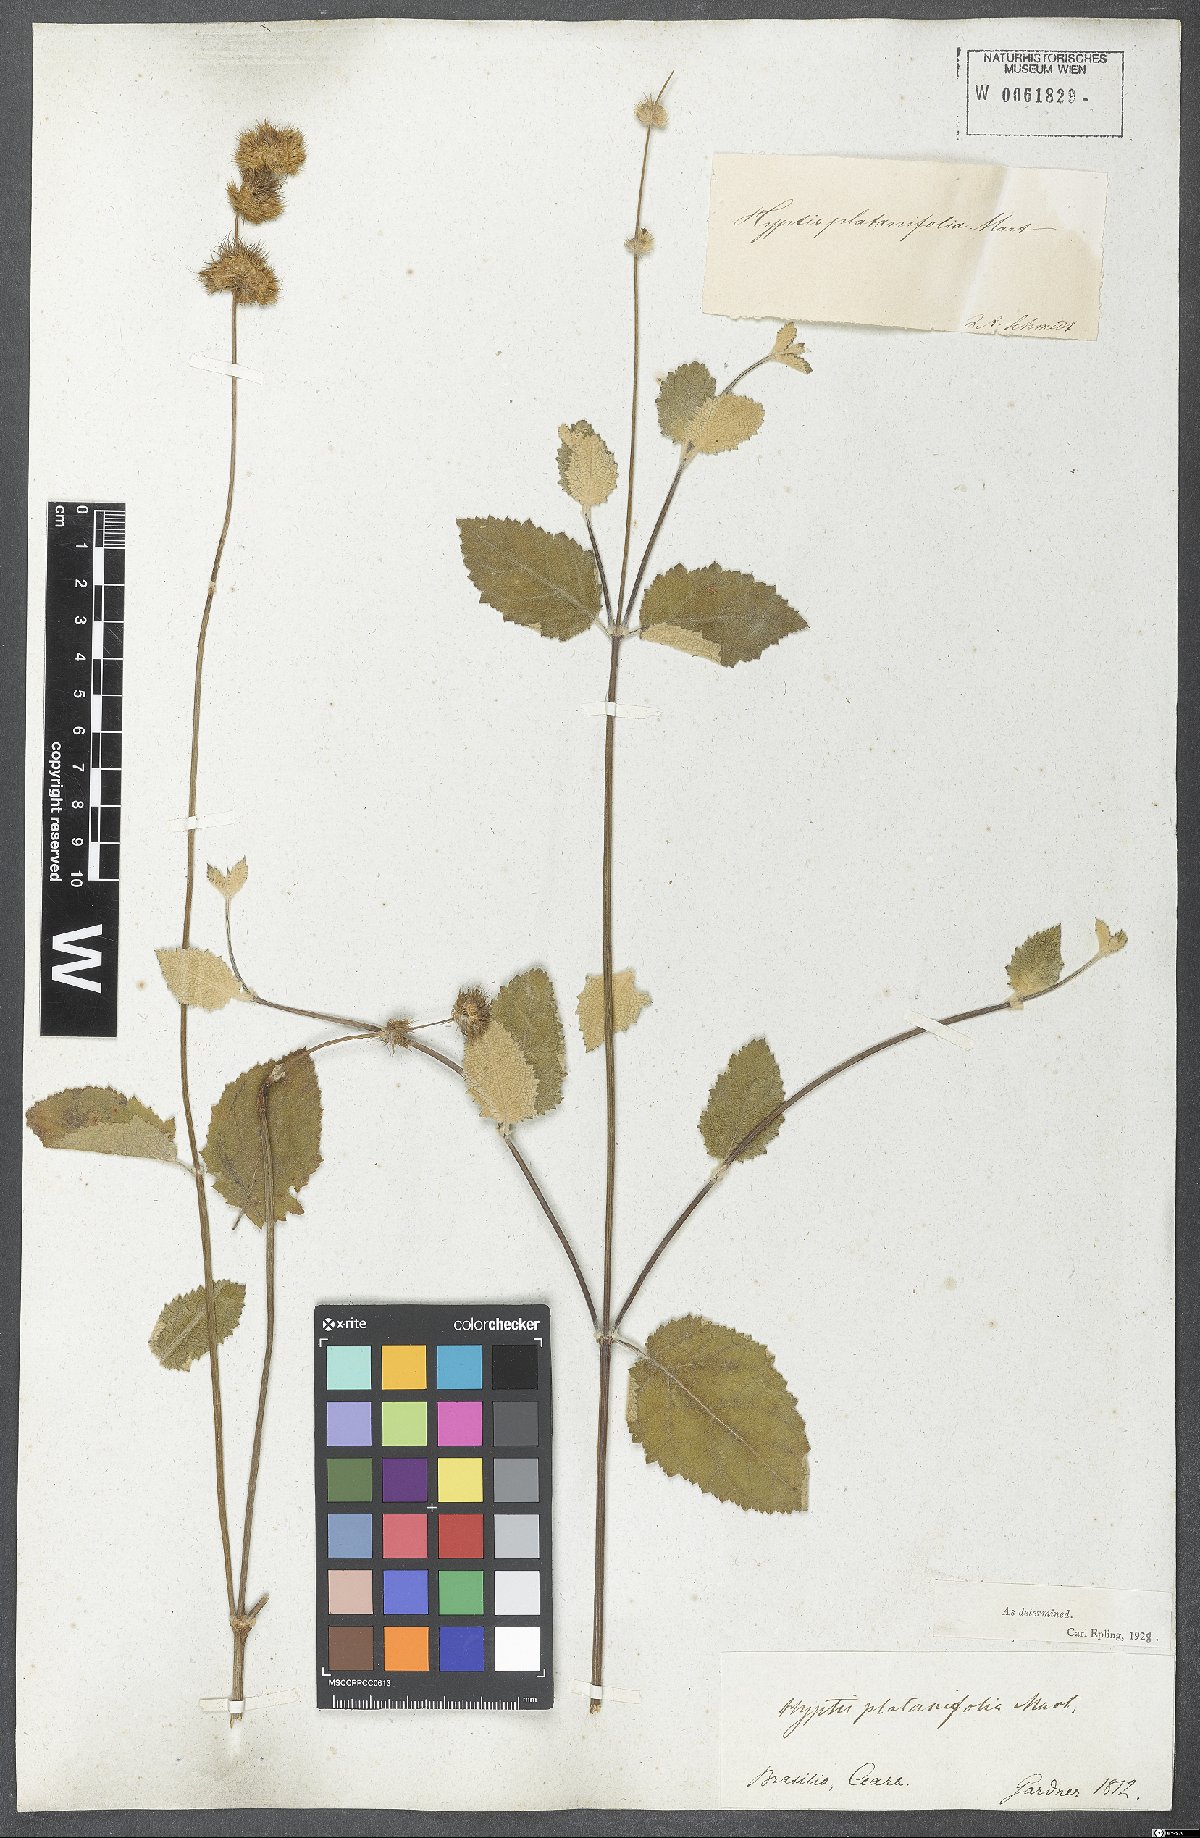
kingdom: Plantae
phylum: Tracheophyta
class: Magnoliopsida
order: Lamiales
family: Lamiaceae
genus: Gymneia
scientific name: Gymneia platanifolia
